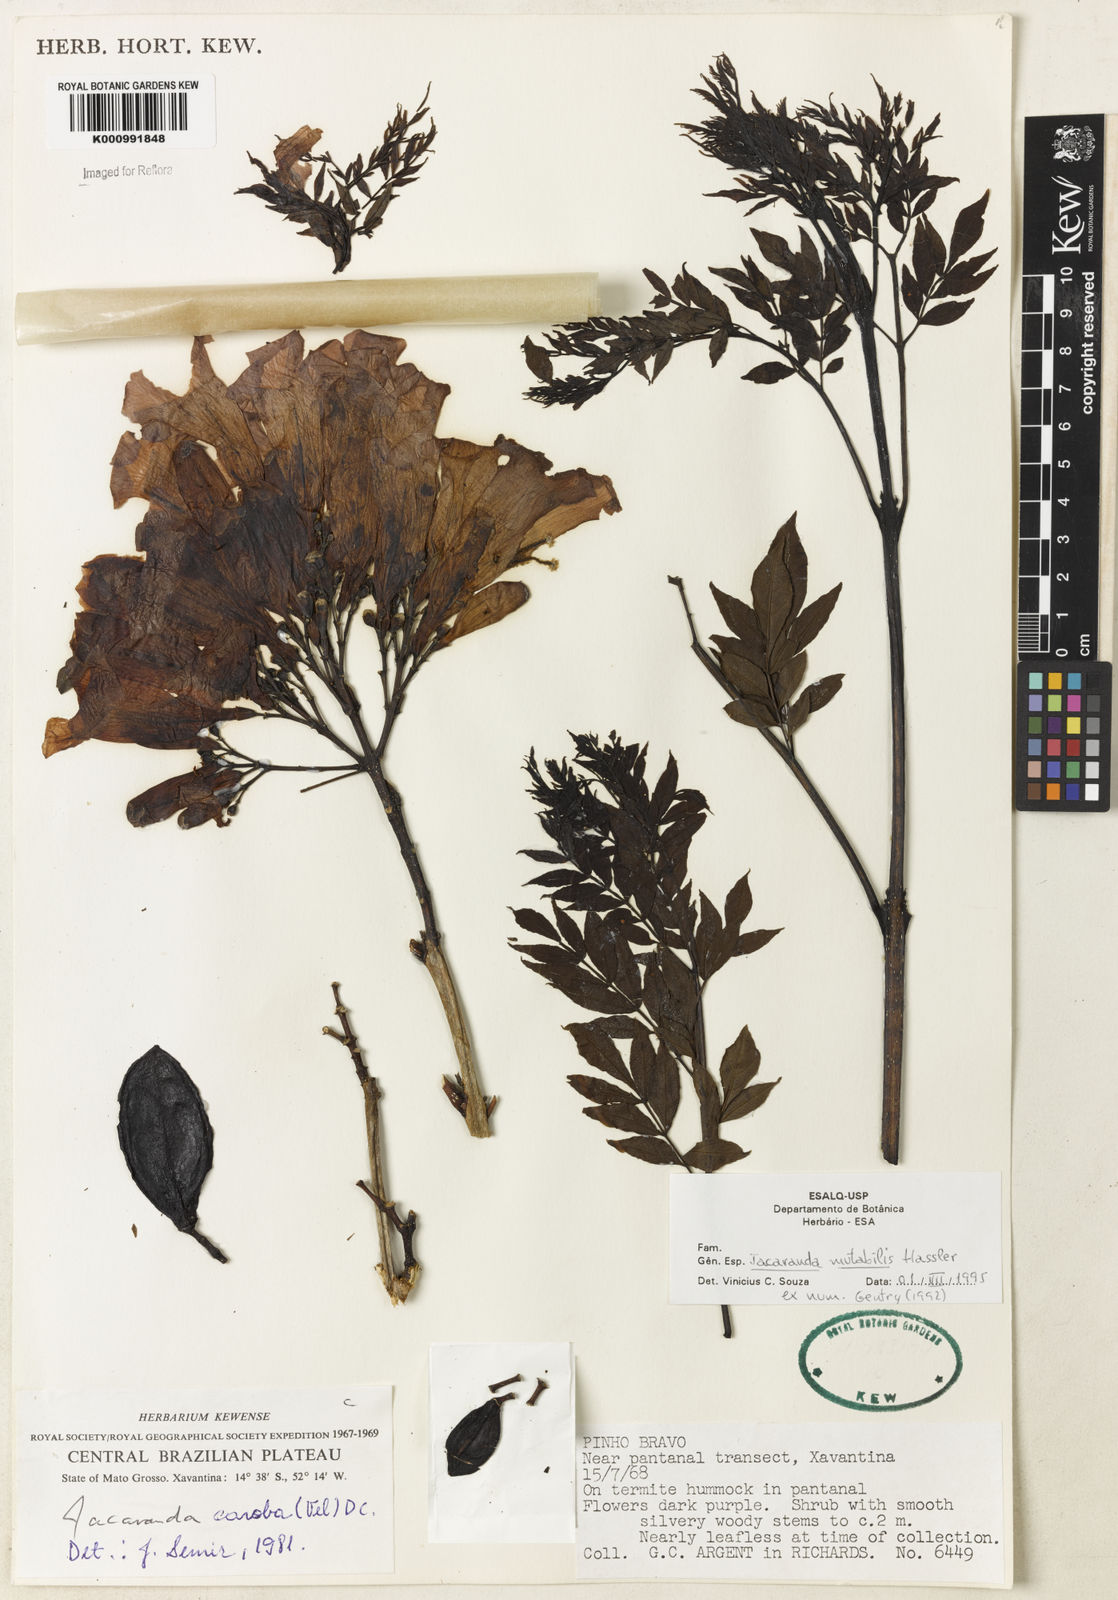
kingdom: Plantae
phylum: Tracheophyta
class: Magnoliopsida
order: Lamiales
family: Bignoniaceae
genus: Jacaranda
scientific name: Jacaranda mutabilis
